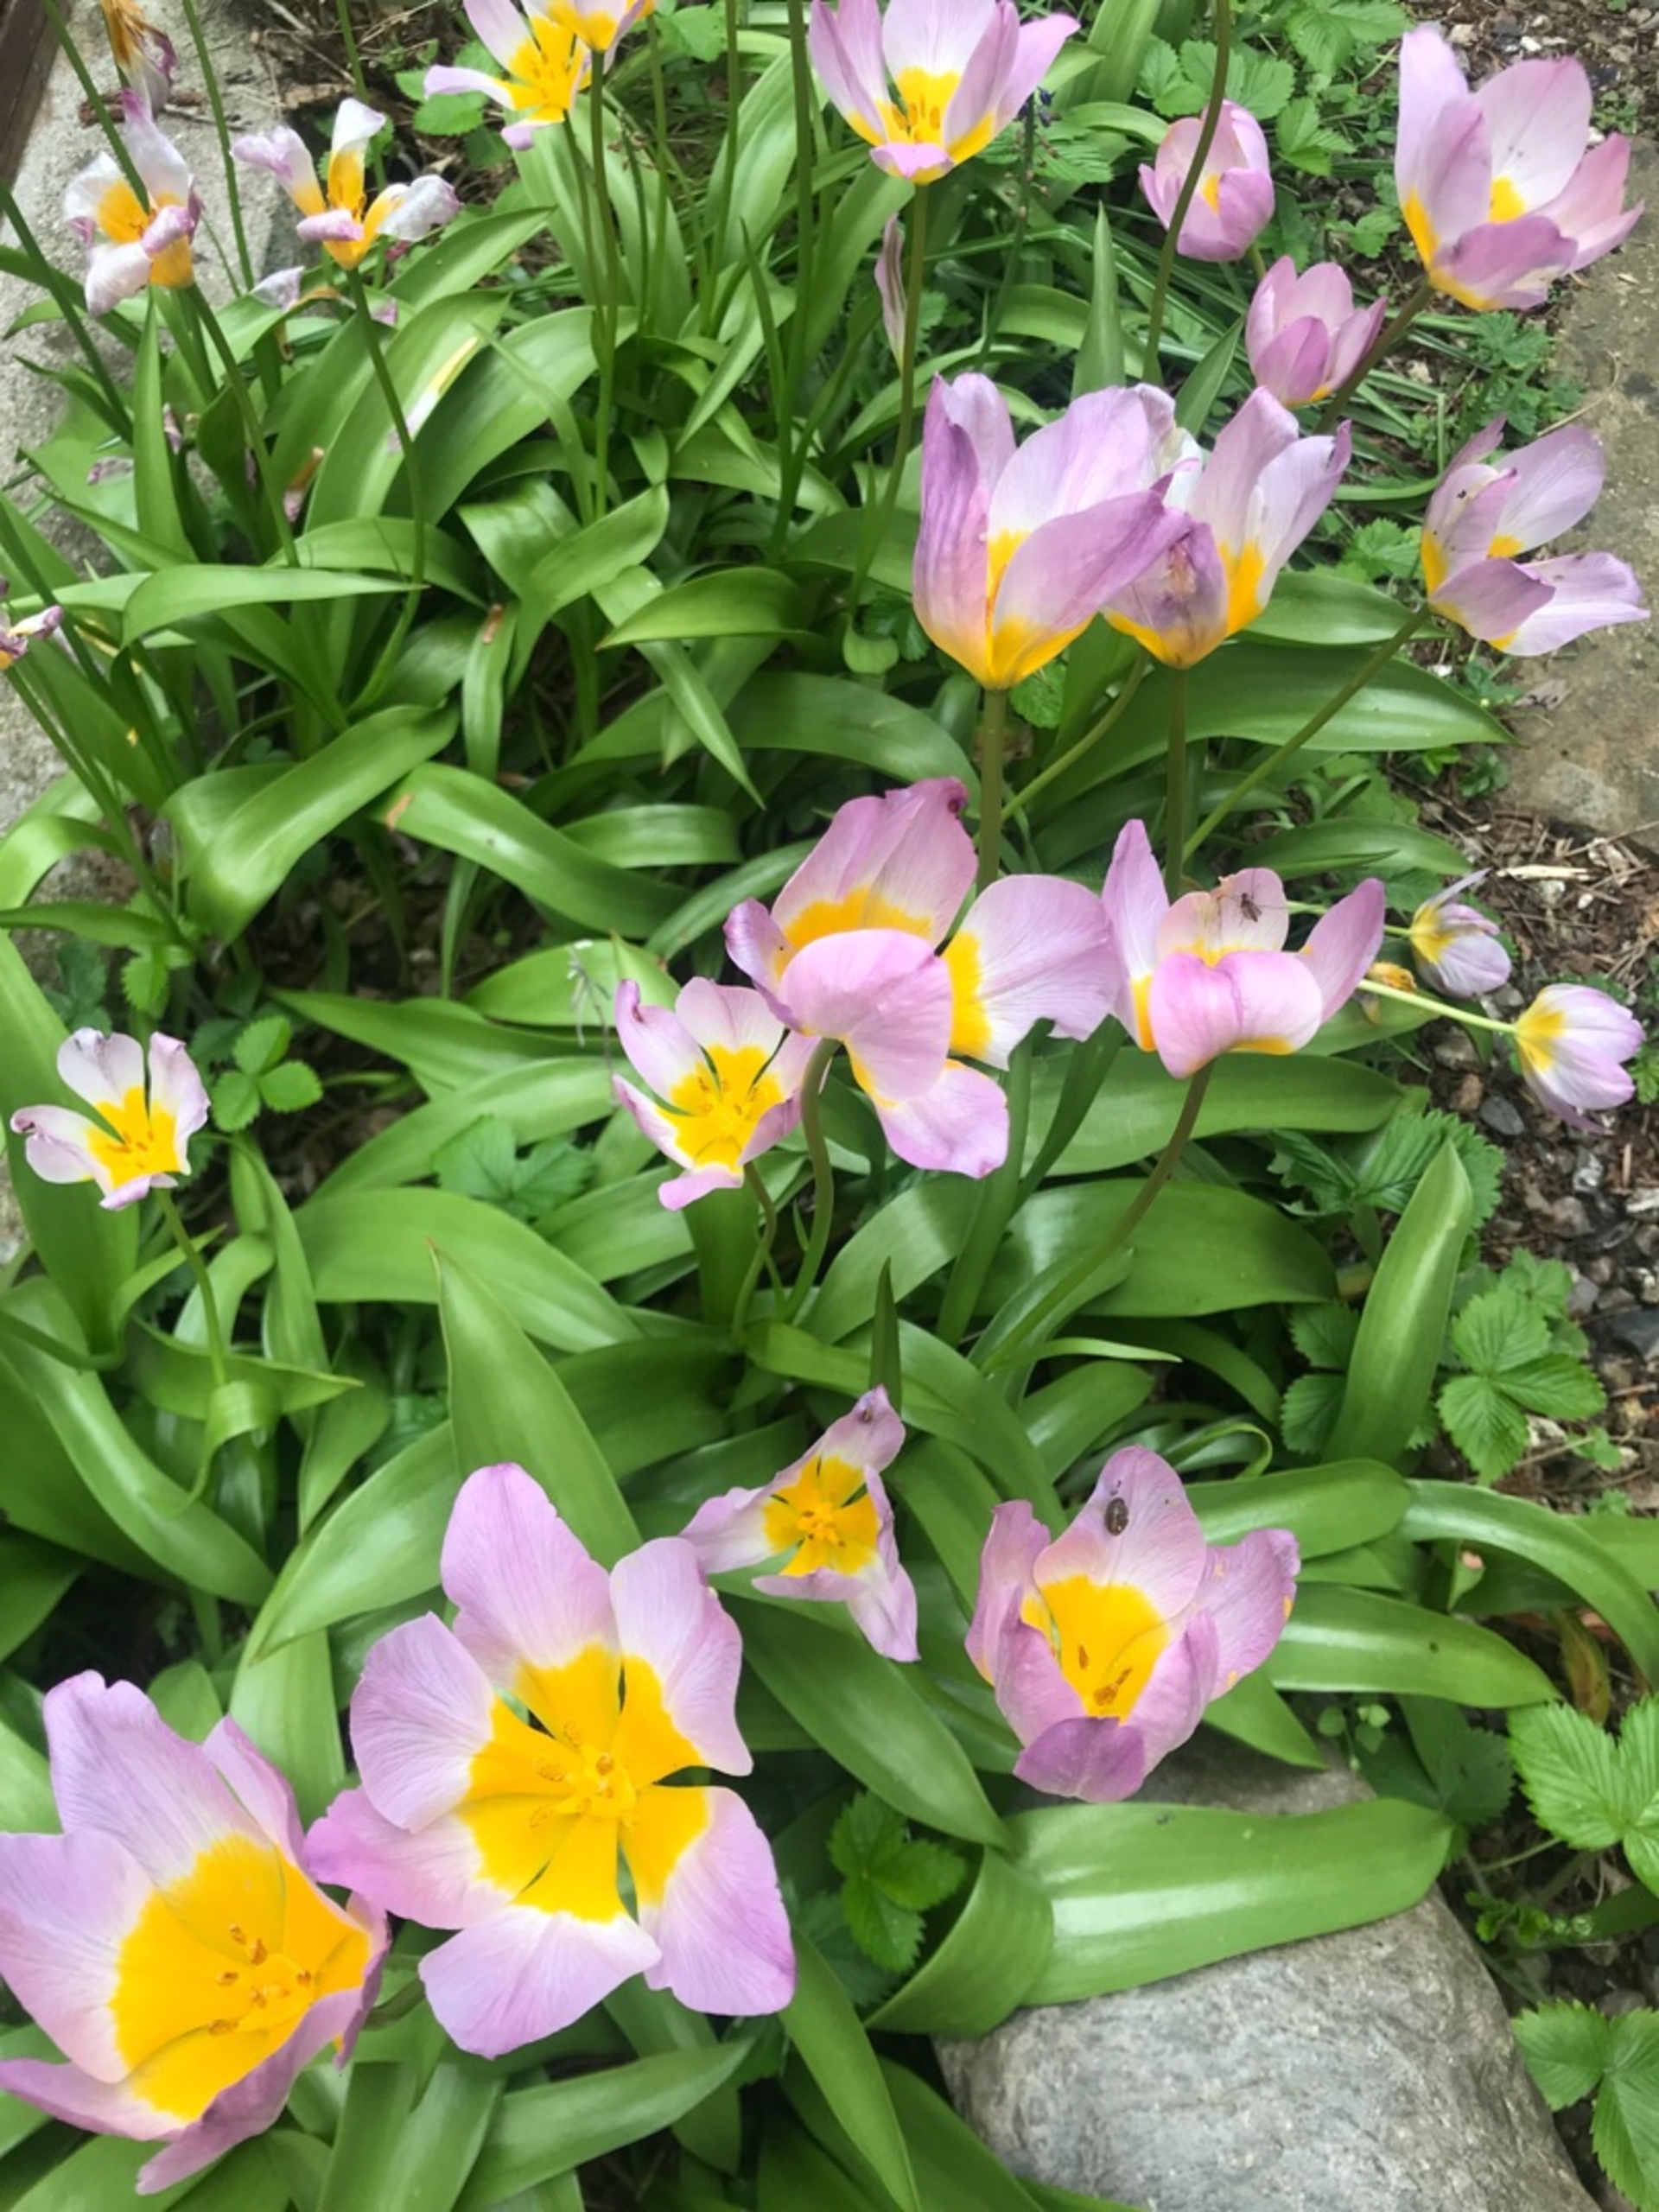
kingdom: Plantae
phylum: Tracheophyta
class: Liliopsida
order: Liliales
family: Liliaceae
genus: Tulipa
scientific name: Tulipa gesneriana
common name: Have-tulipan
